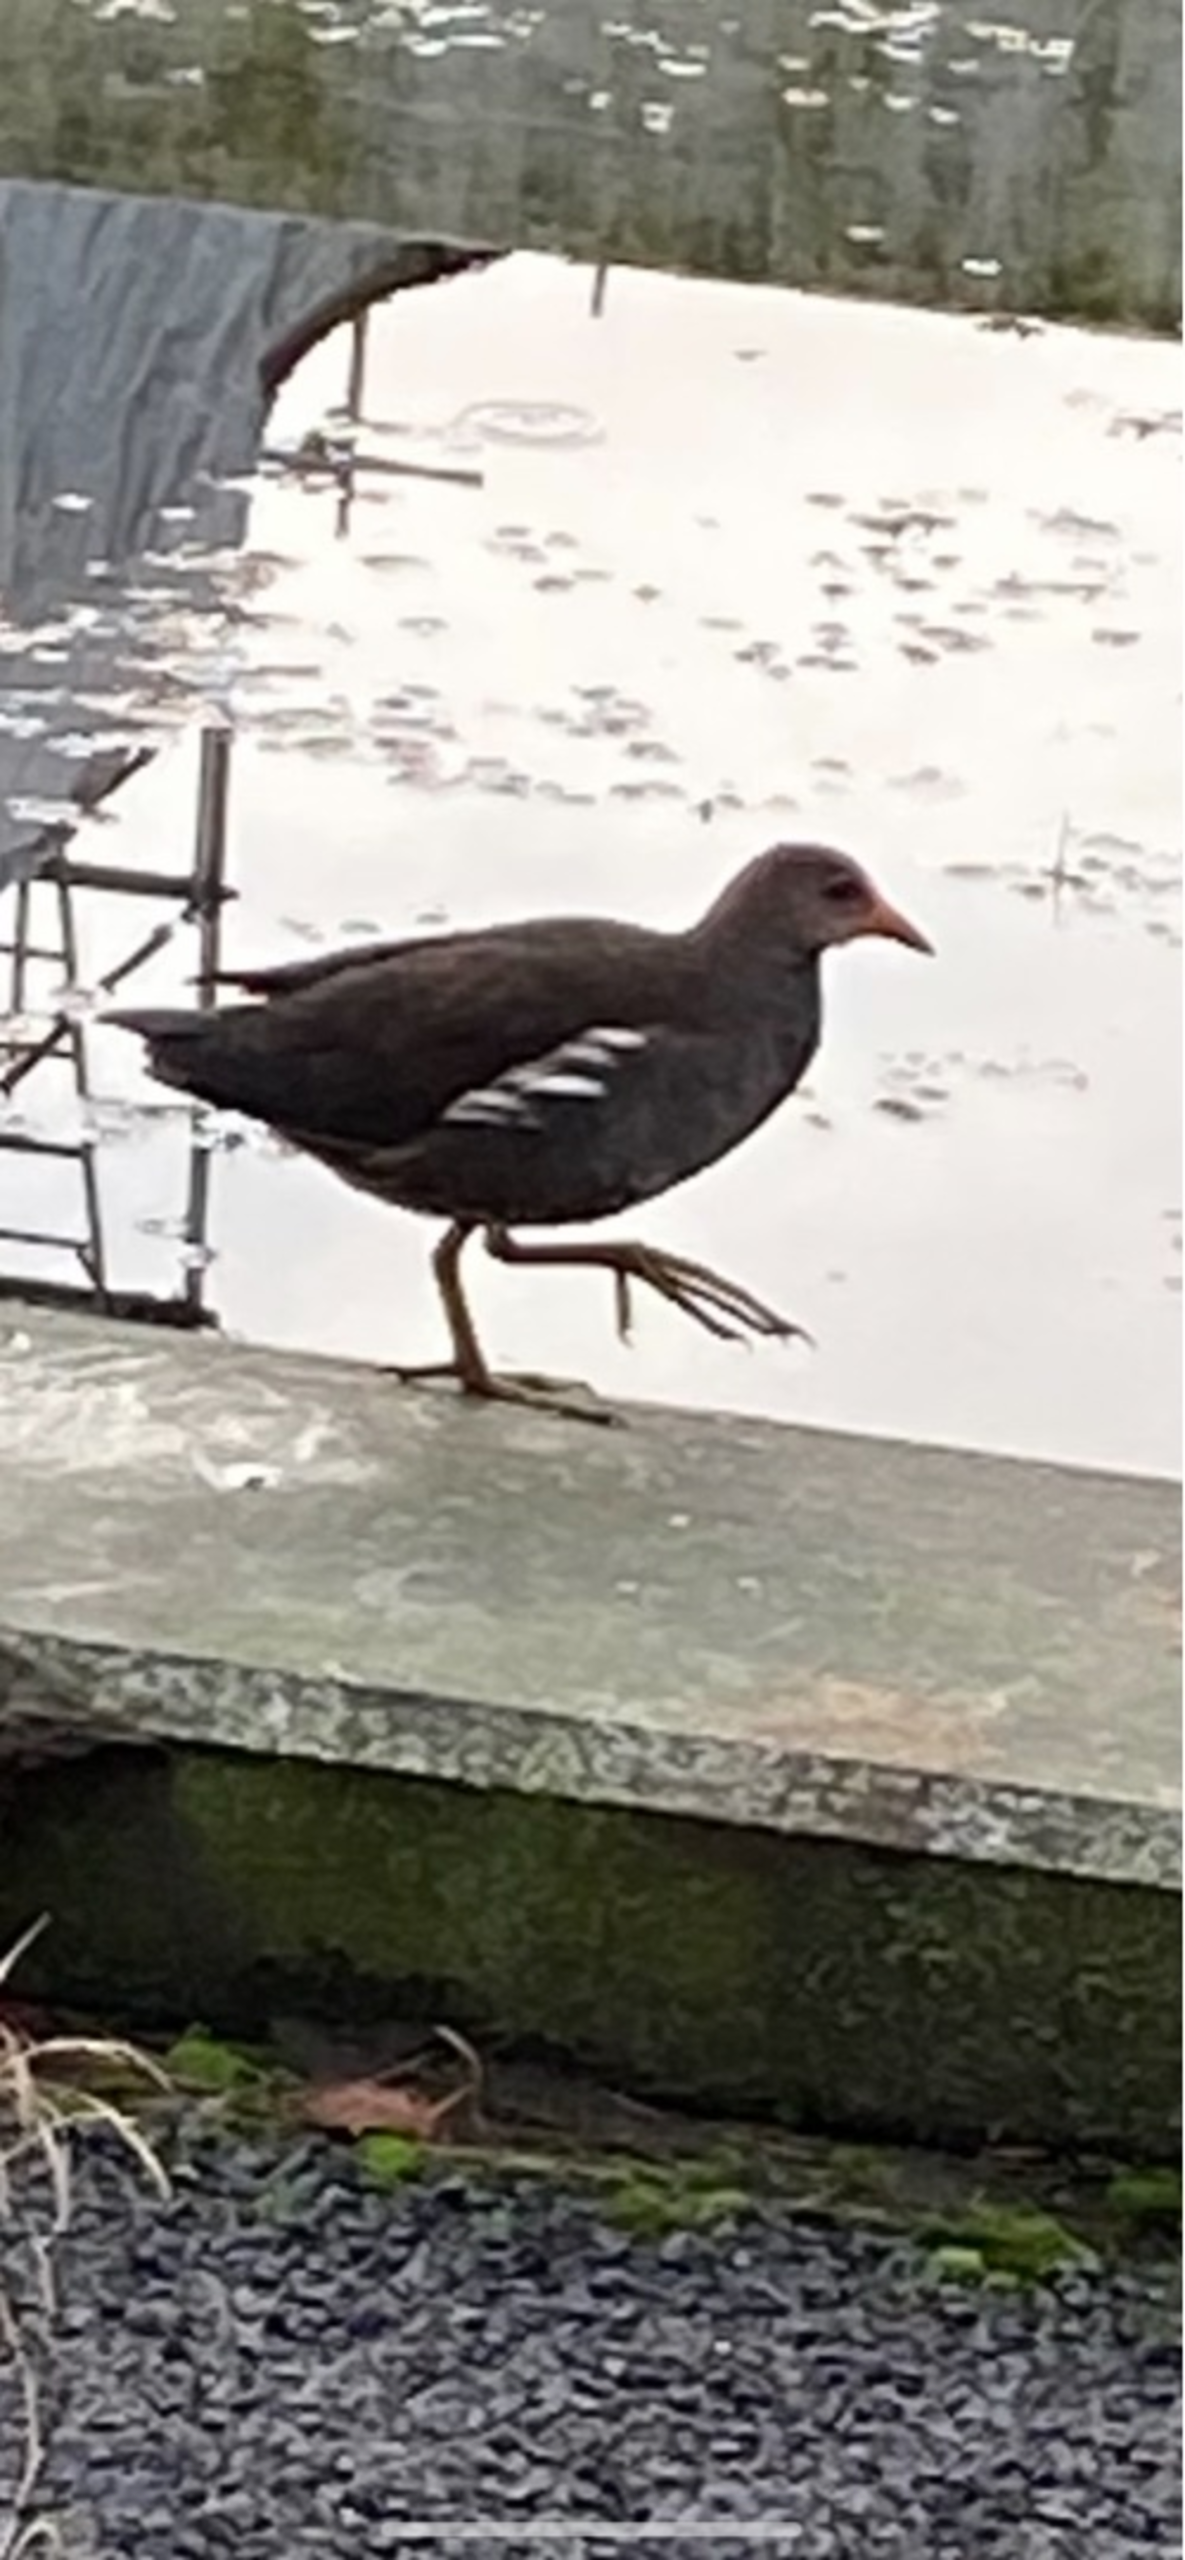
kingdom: Animalia
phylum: Chordata
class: Aves
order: Gruiformes
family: Rallidae
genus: Gallinula
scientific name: Gallinula chloropus
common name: Grønbenet rørhøne
